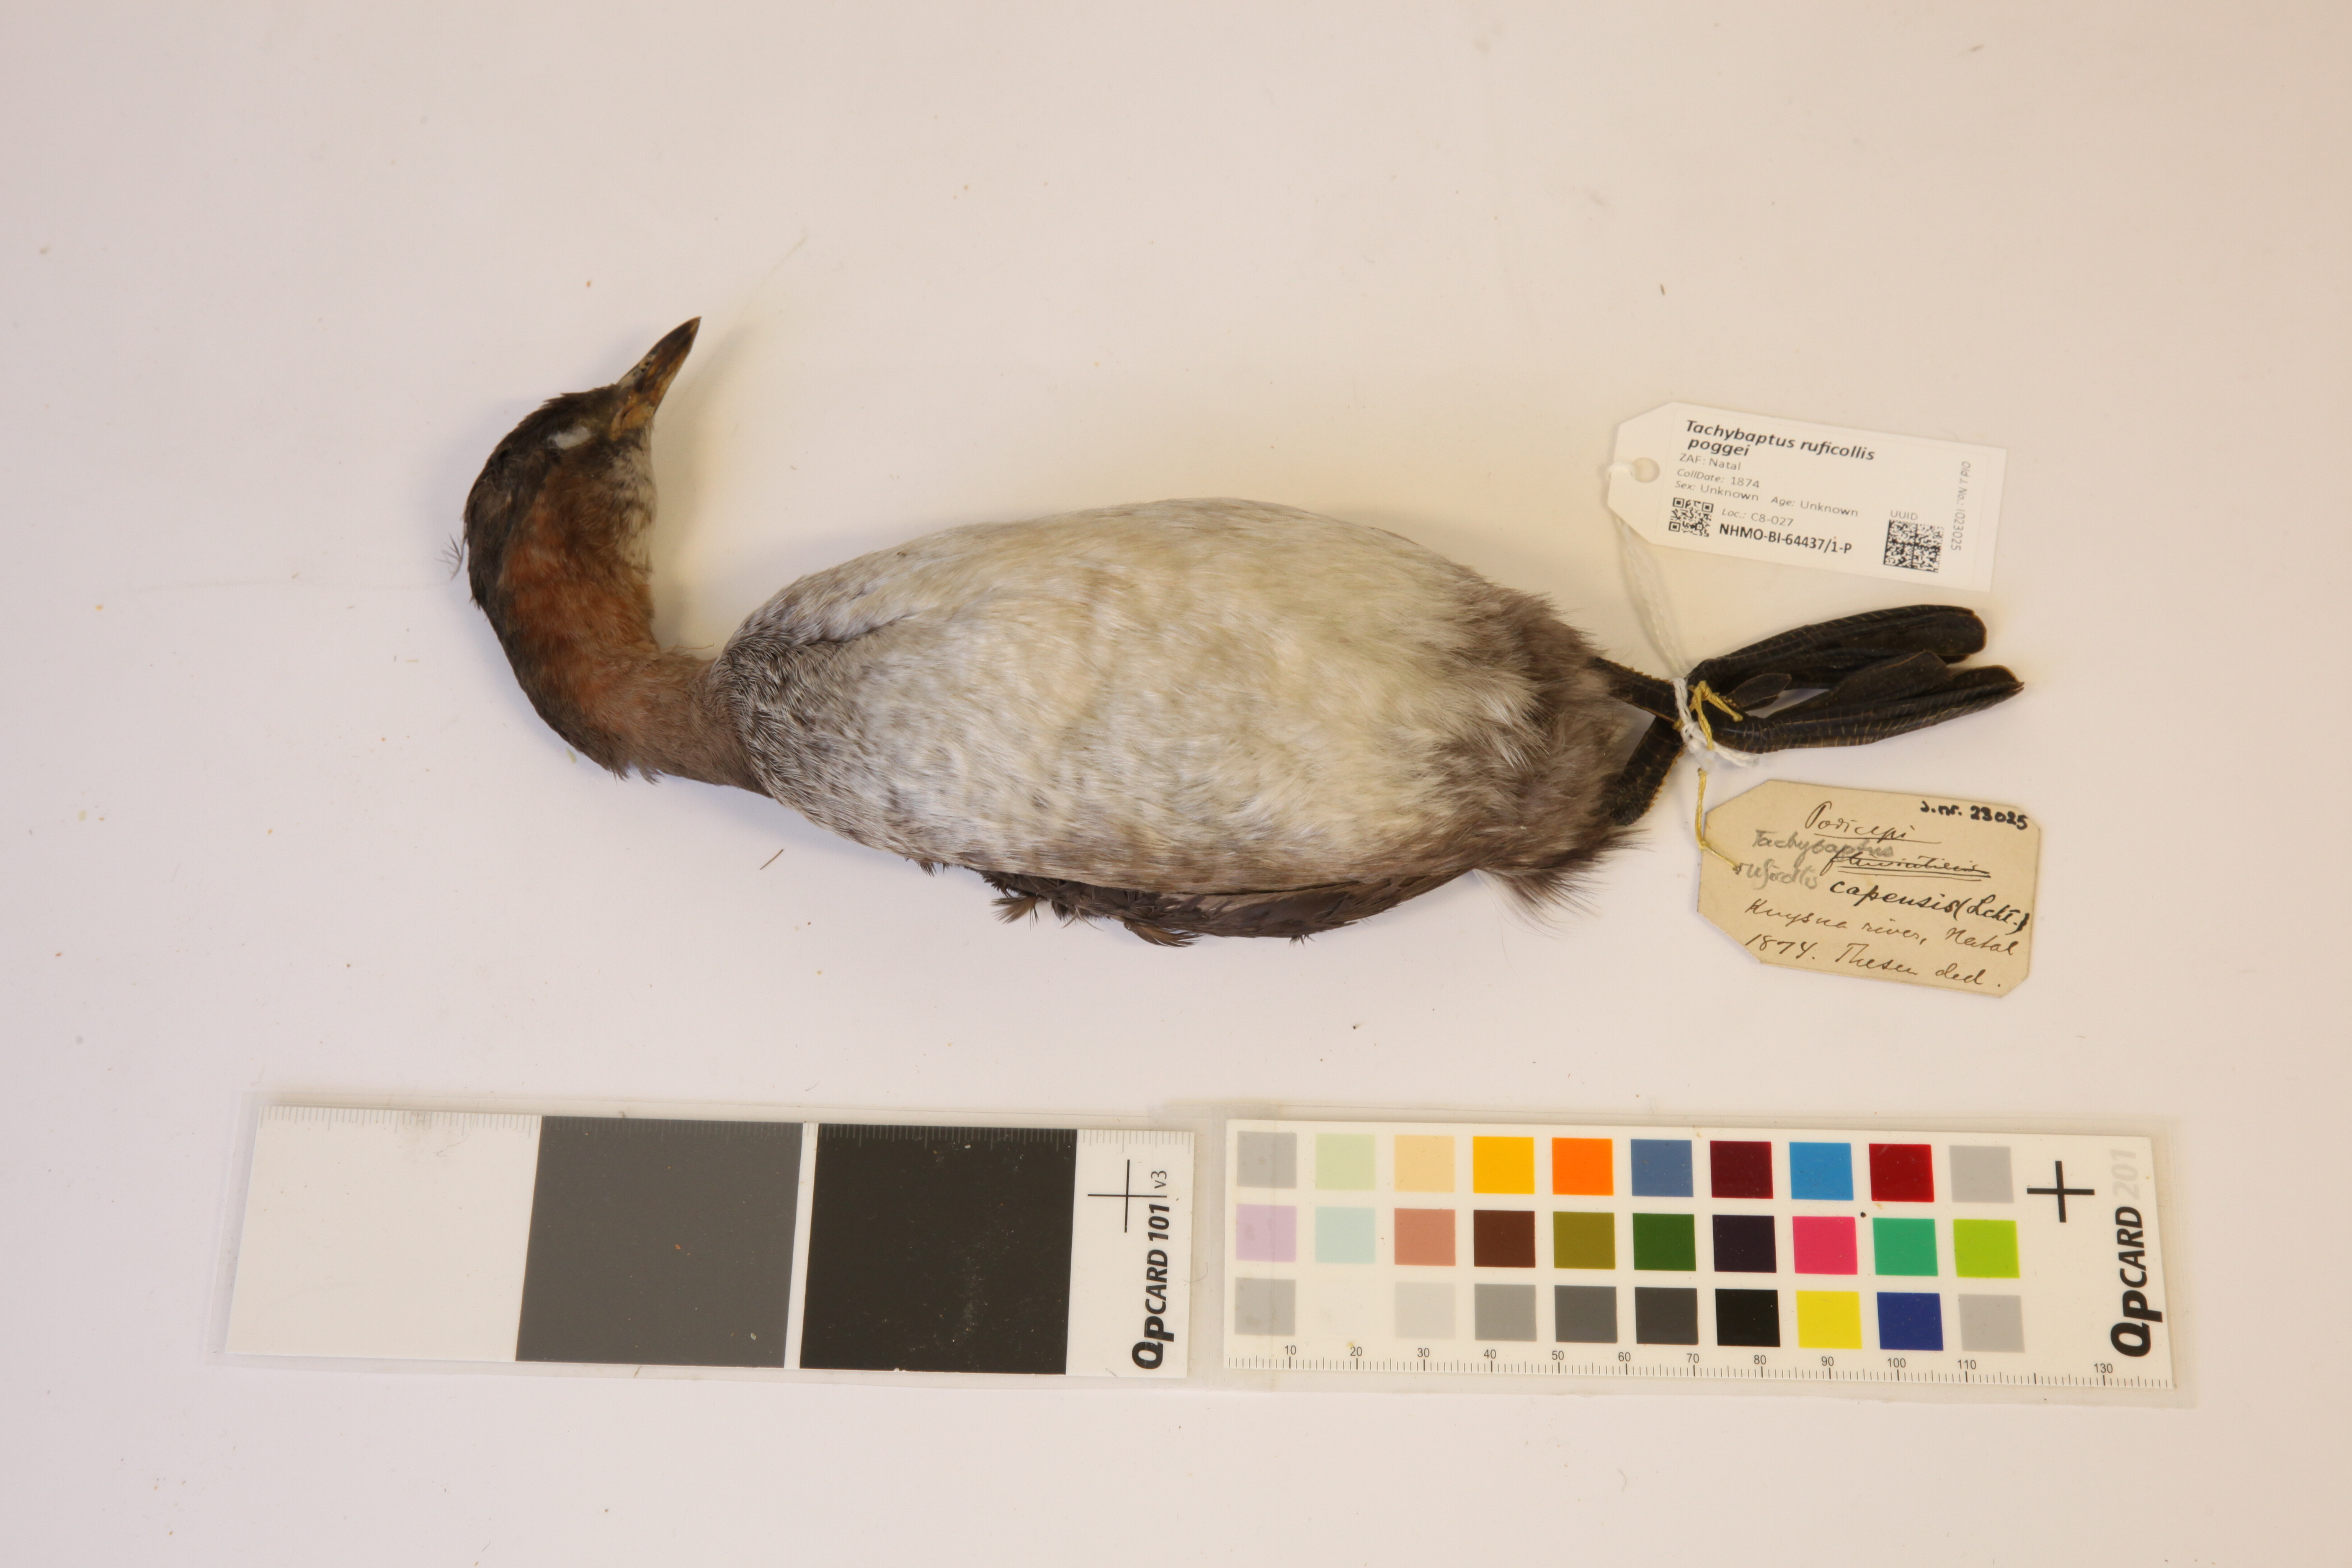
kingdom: Animalia
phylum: Chordata
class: Aves
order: Podicipediformes
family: Podicipedidae
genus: Tachybaptus
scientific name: Tachybaptus ruficollis
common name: Little grebe
